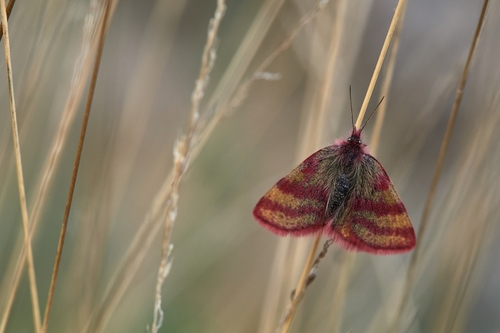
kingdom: Animalia
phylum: Arthropoda
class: Insecta
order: Lepidoptera
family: Geometridae
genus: Lythria
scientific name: Lythria cruentaria
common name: Purple-barred yellow
